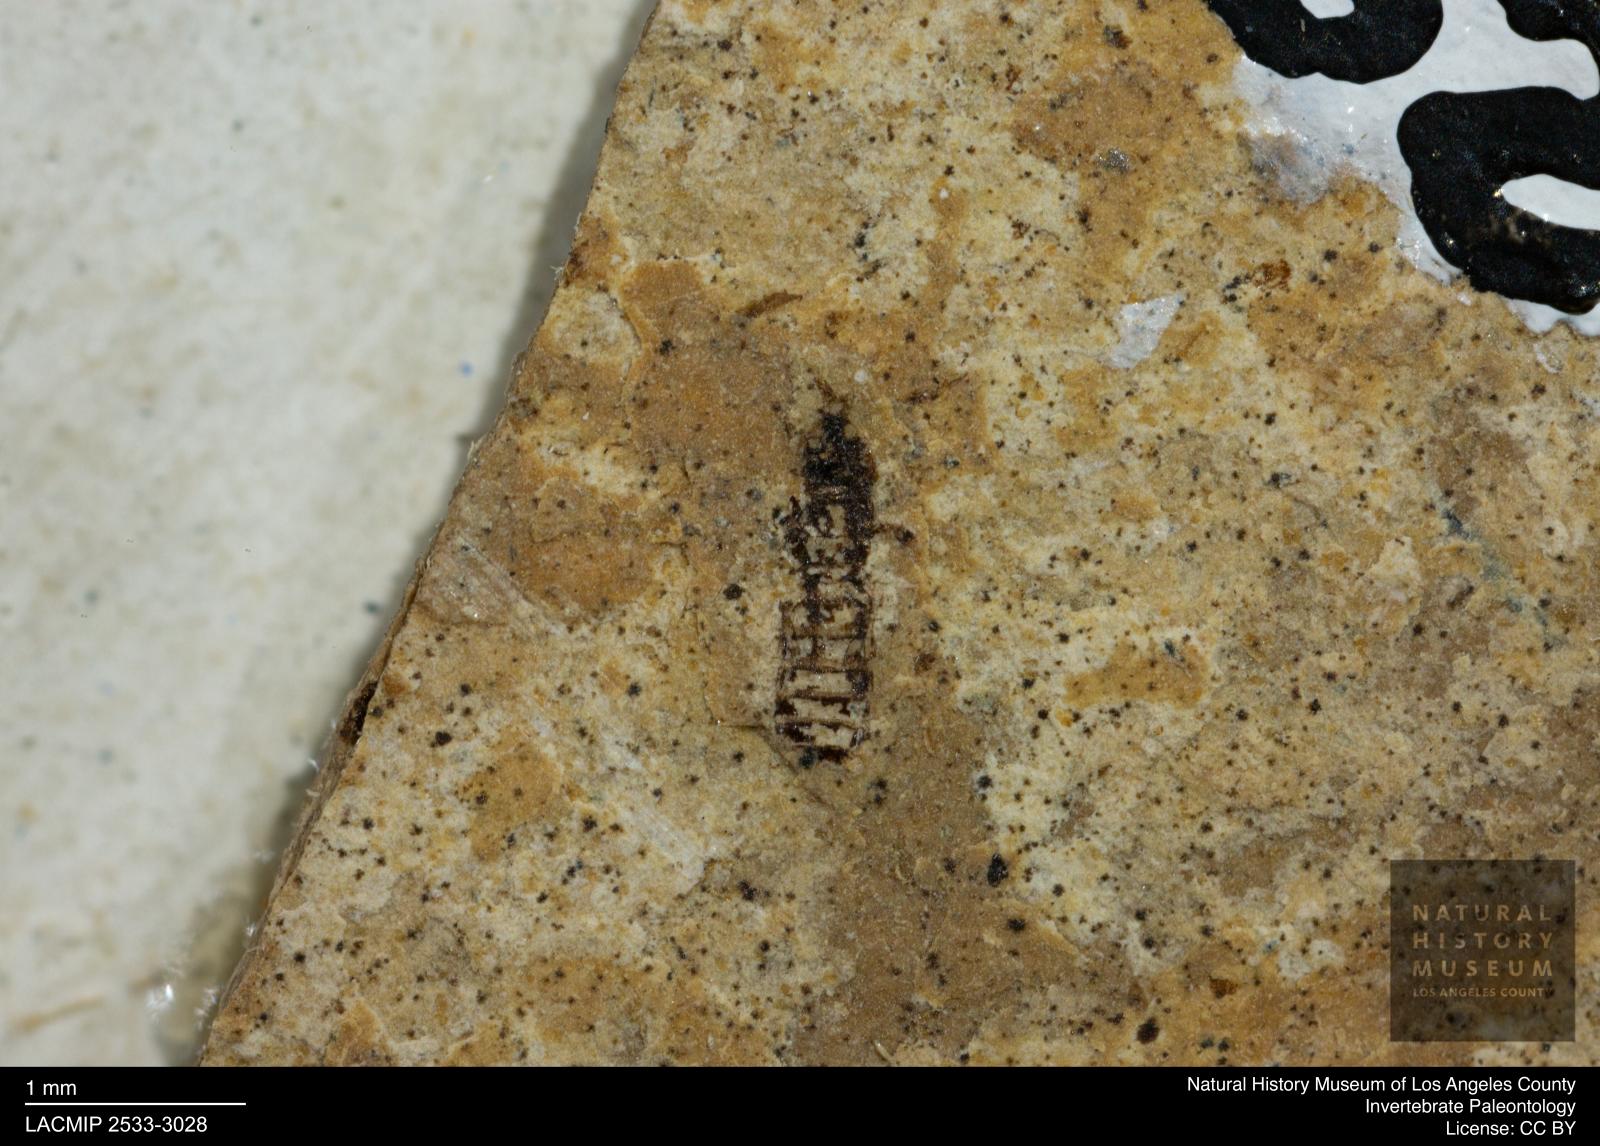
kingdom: Animalia
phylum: Arthropoda
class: Insecta
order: Thysanoptera
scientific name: Thysanoptera
